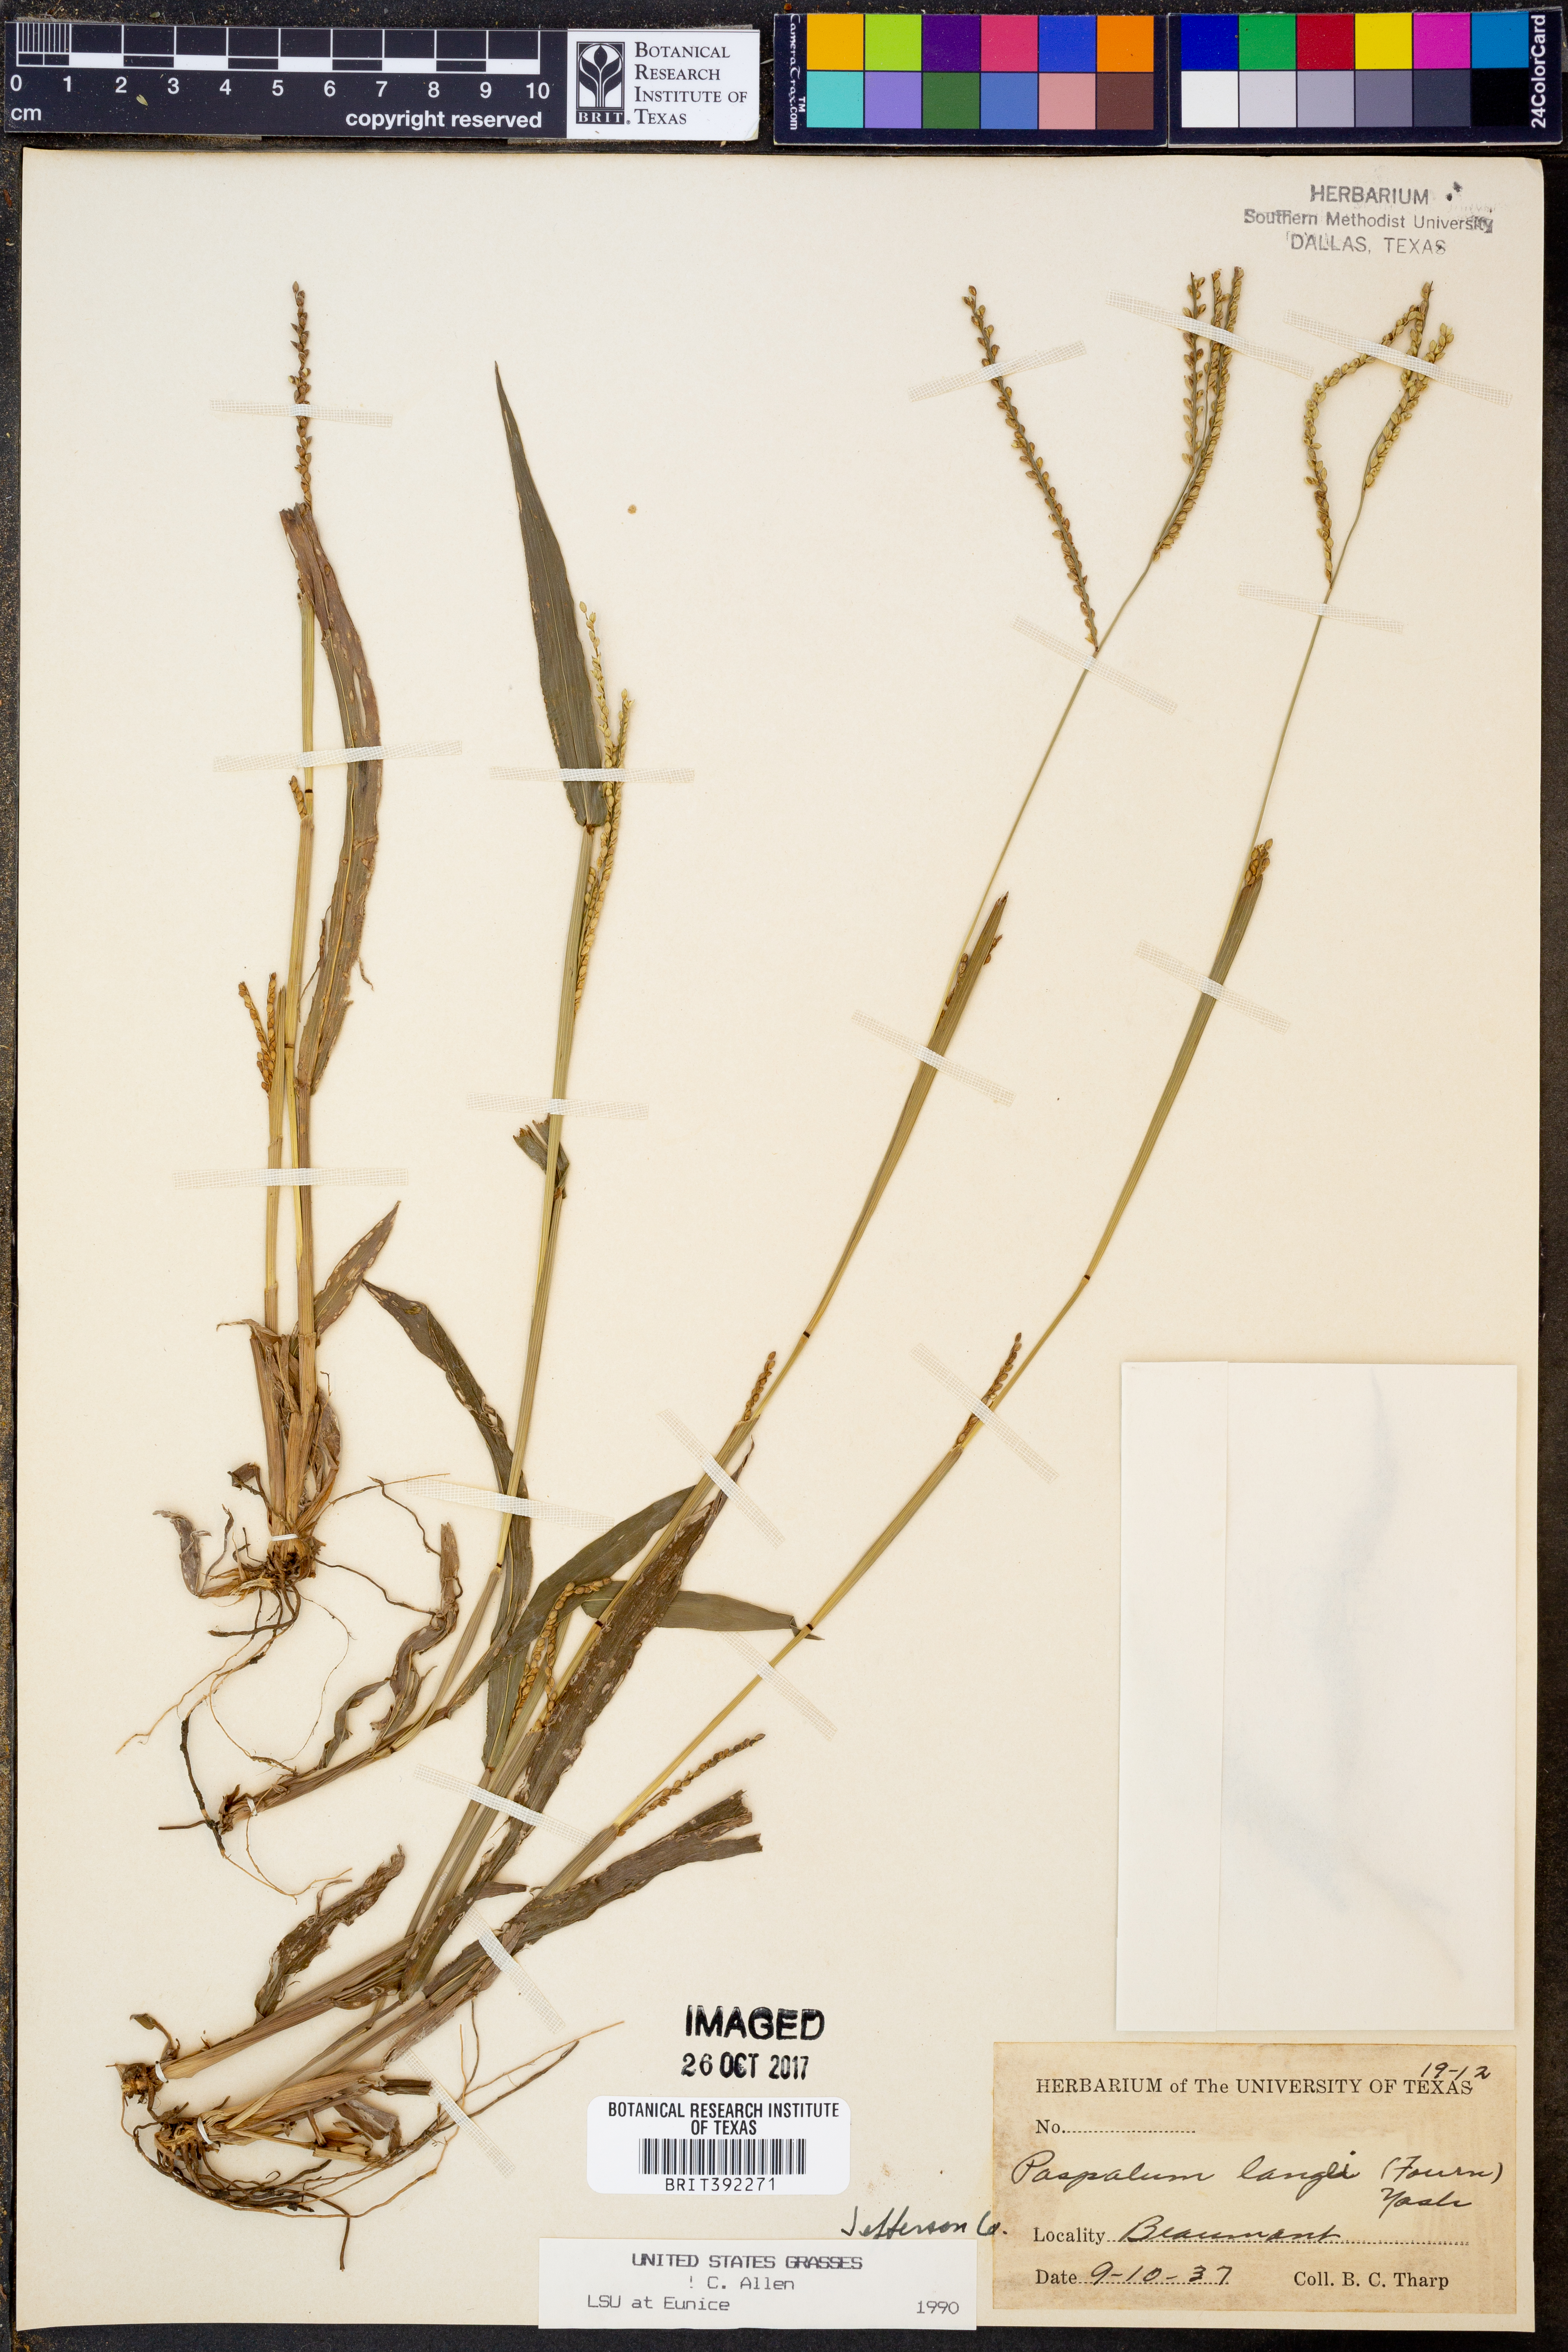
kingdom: Plantae
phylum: Tracheophyta
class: Liliopsida
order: Poales
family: Poaceae
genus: Paspalum
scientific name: Paspalum langei
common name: Rusty-seed paspalum
